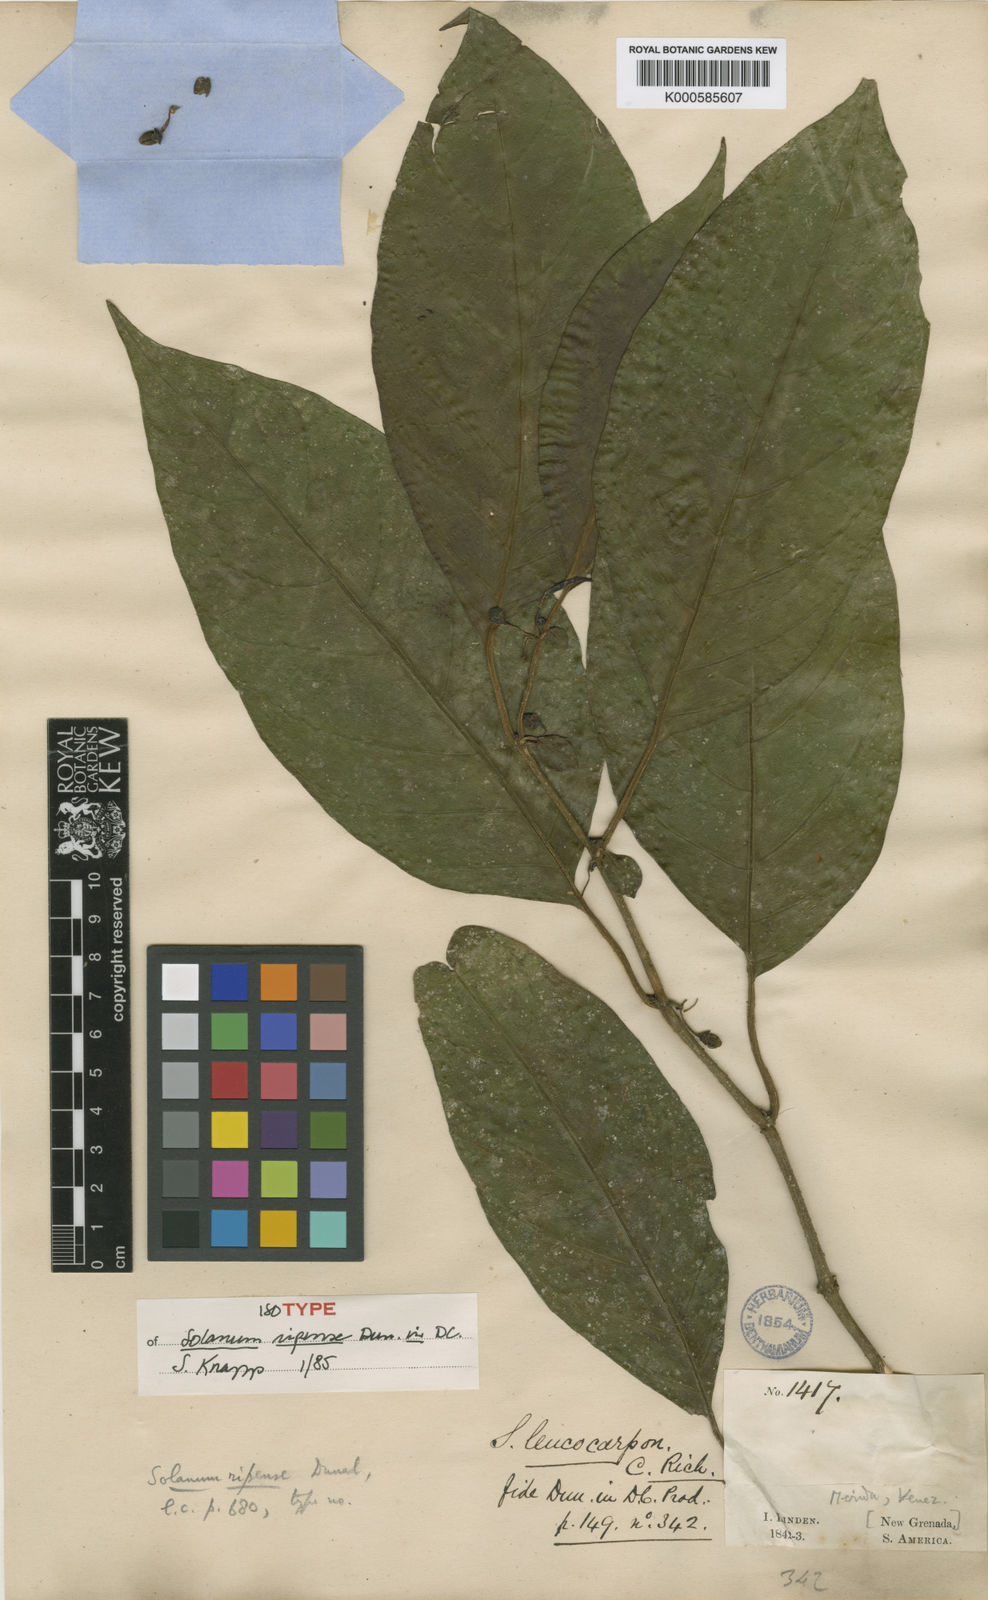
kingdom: Plantae
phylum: Tracheophyta
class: Magnoliopsida
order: Solanales
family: Solanaceae
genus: Solanum
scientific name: Solanum ripense
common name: Mérida nightshade
